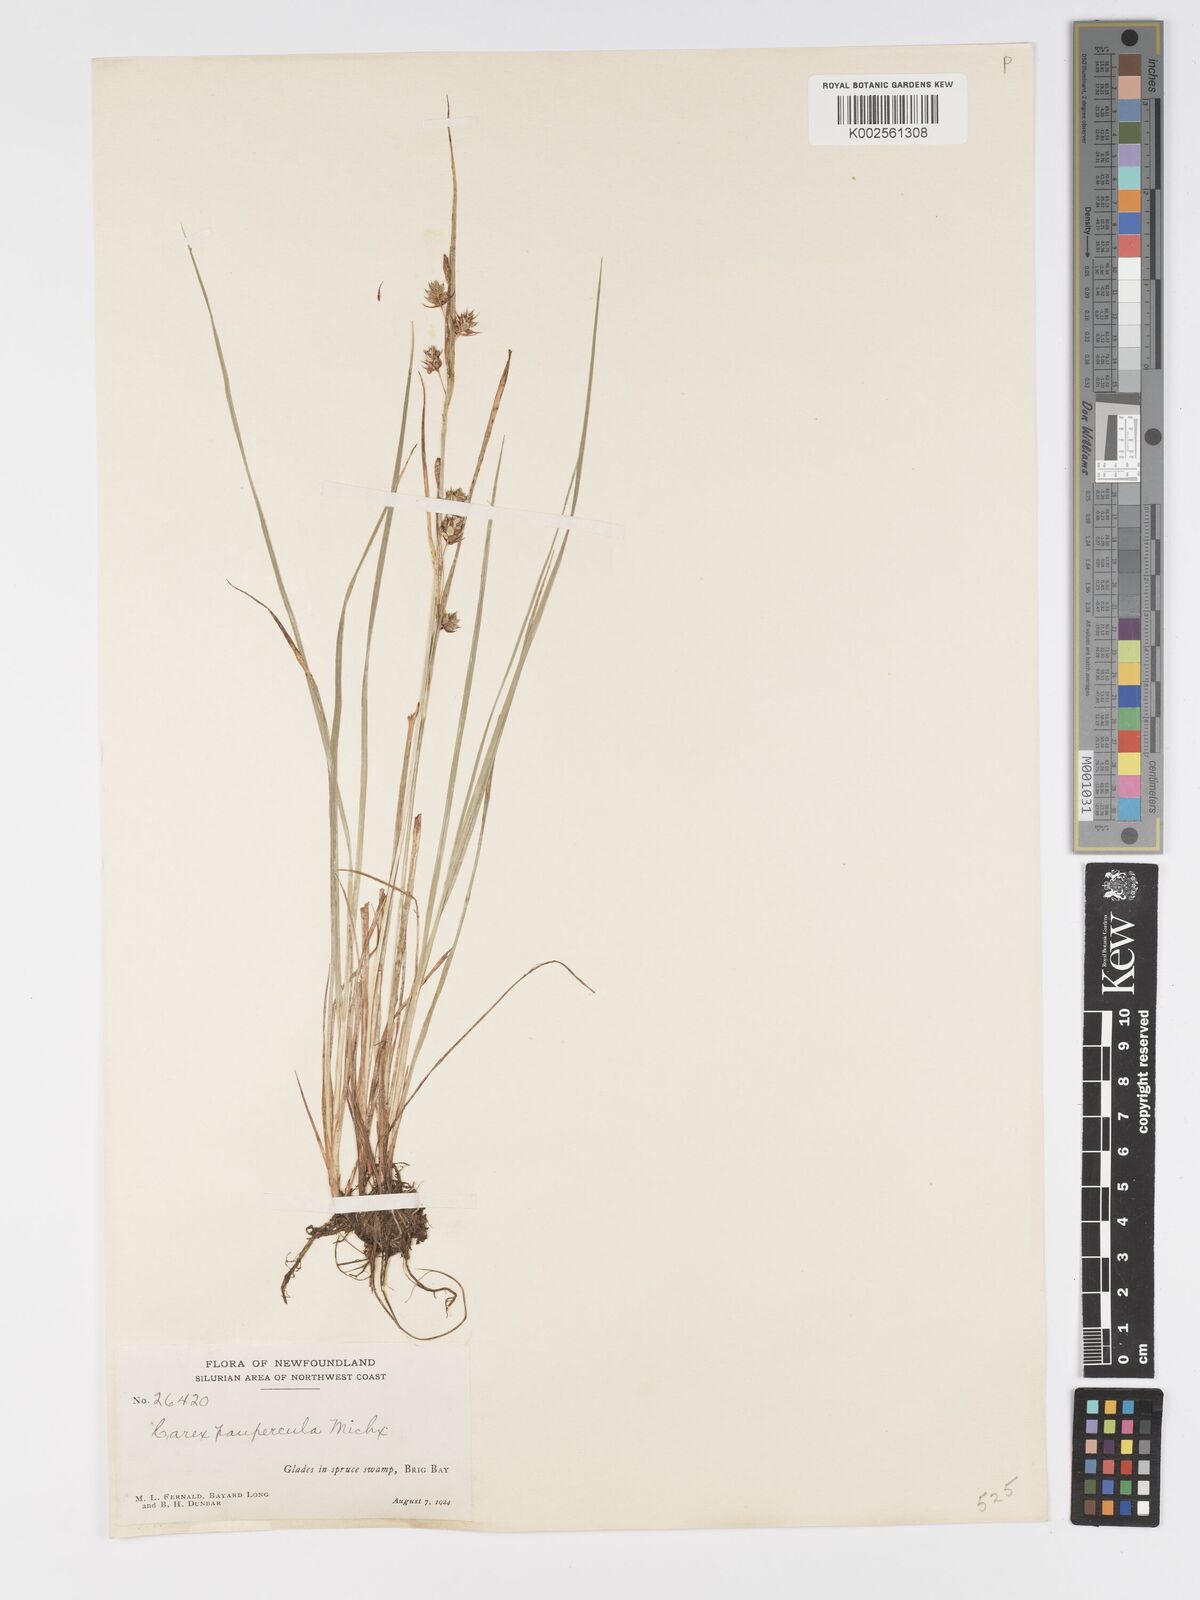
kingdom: Plantae
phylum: Tracheophyta
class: Liliopsida
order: Poales
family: Cyperaceae
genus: Carex
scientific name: Carex magellanica
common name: Bog sedge
